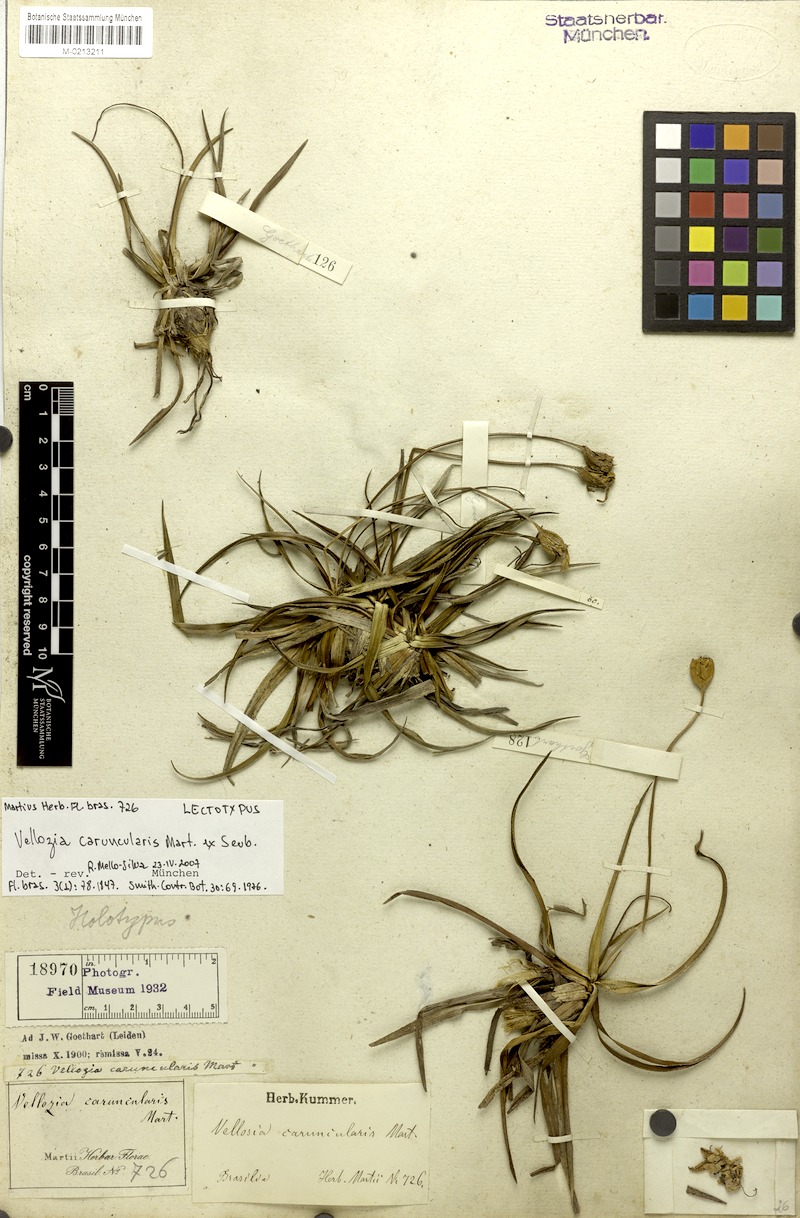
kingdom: Plantae
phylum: Tracheophyta
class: Liliopsida
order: Pandanales
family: Velloziaceae
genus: Vellozia
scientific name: Vellozia caruncularis
